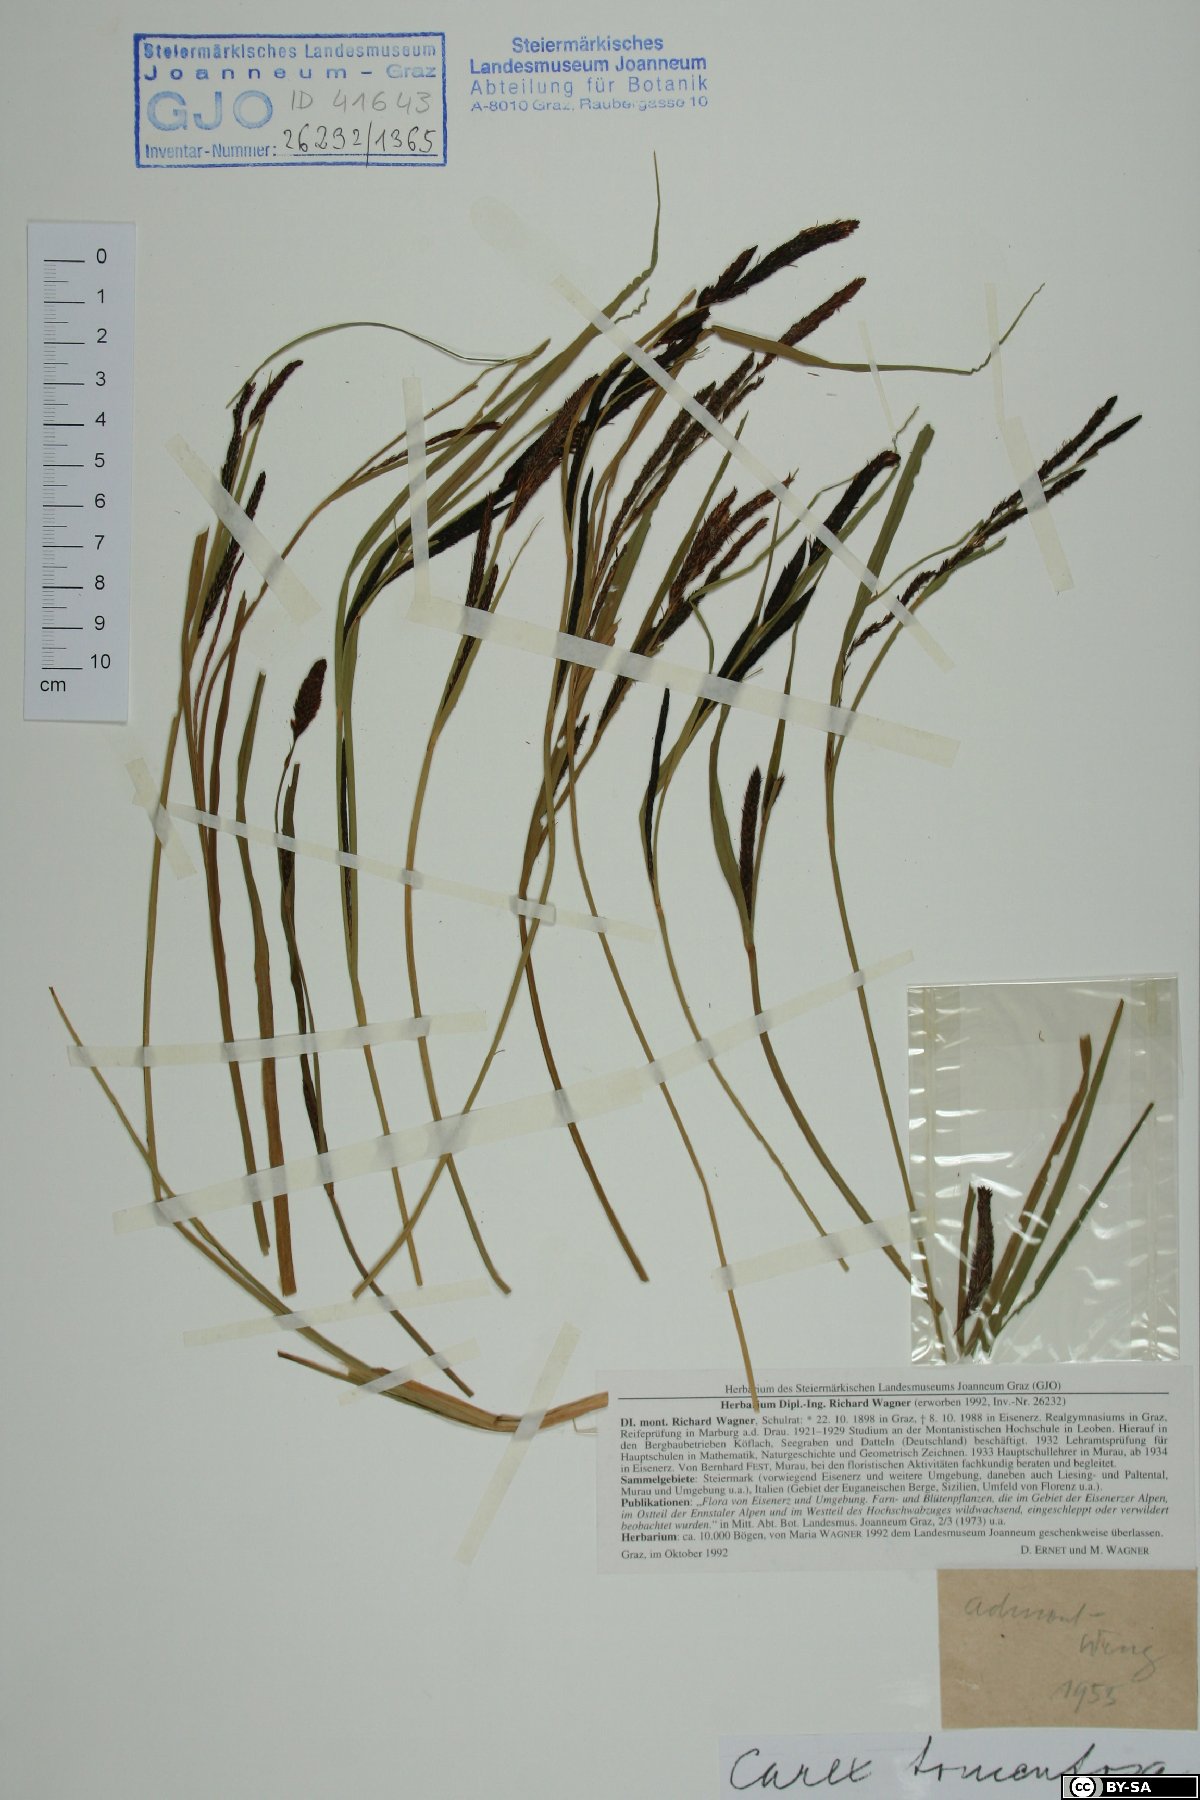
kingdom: Plantae
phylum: Tracheophyta
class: Liliopsida
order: Poales
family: Cyperaceae
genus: Carex
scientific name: Carex tomentosa
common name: Downy-fruited sedge
